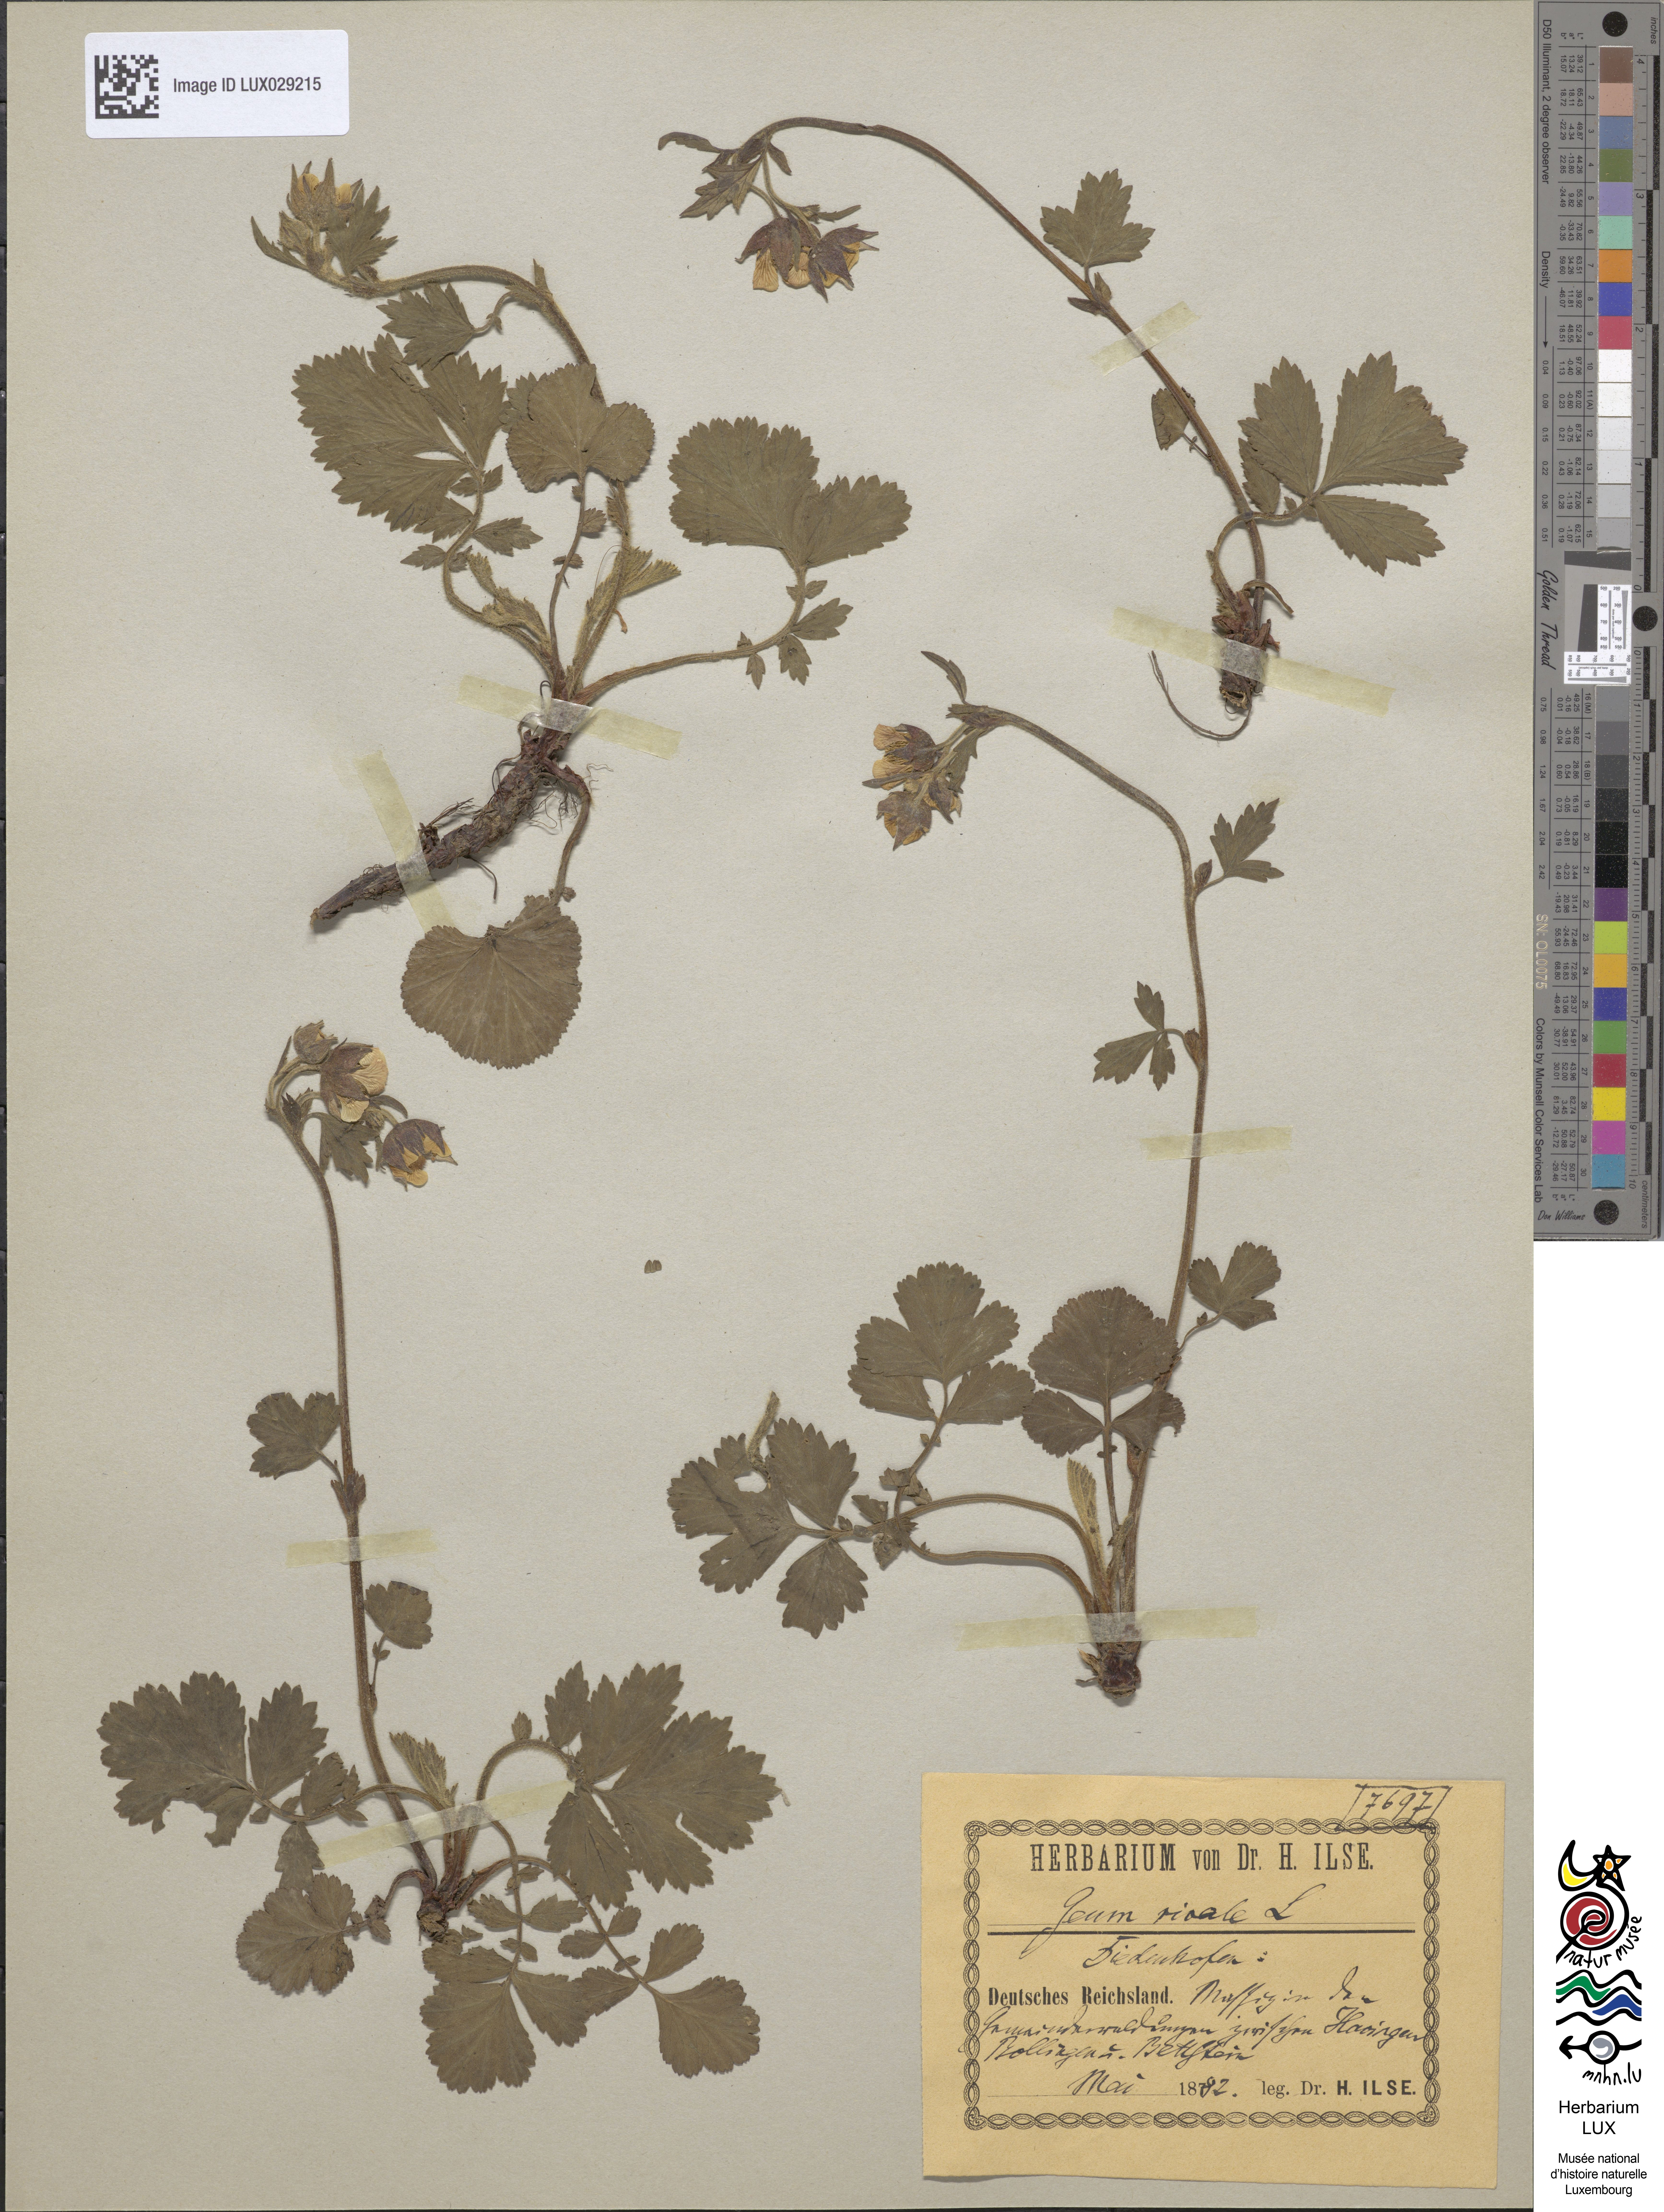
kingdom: Plantae
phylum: Tracheophyta
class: Magnoliopsida
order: Rosales
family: Rosaceae
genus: Geum
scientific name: Geum rivale
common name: Water avens
